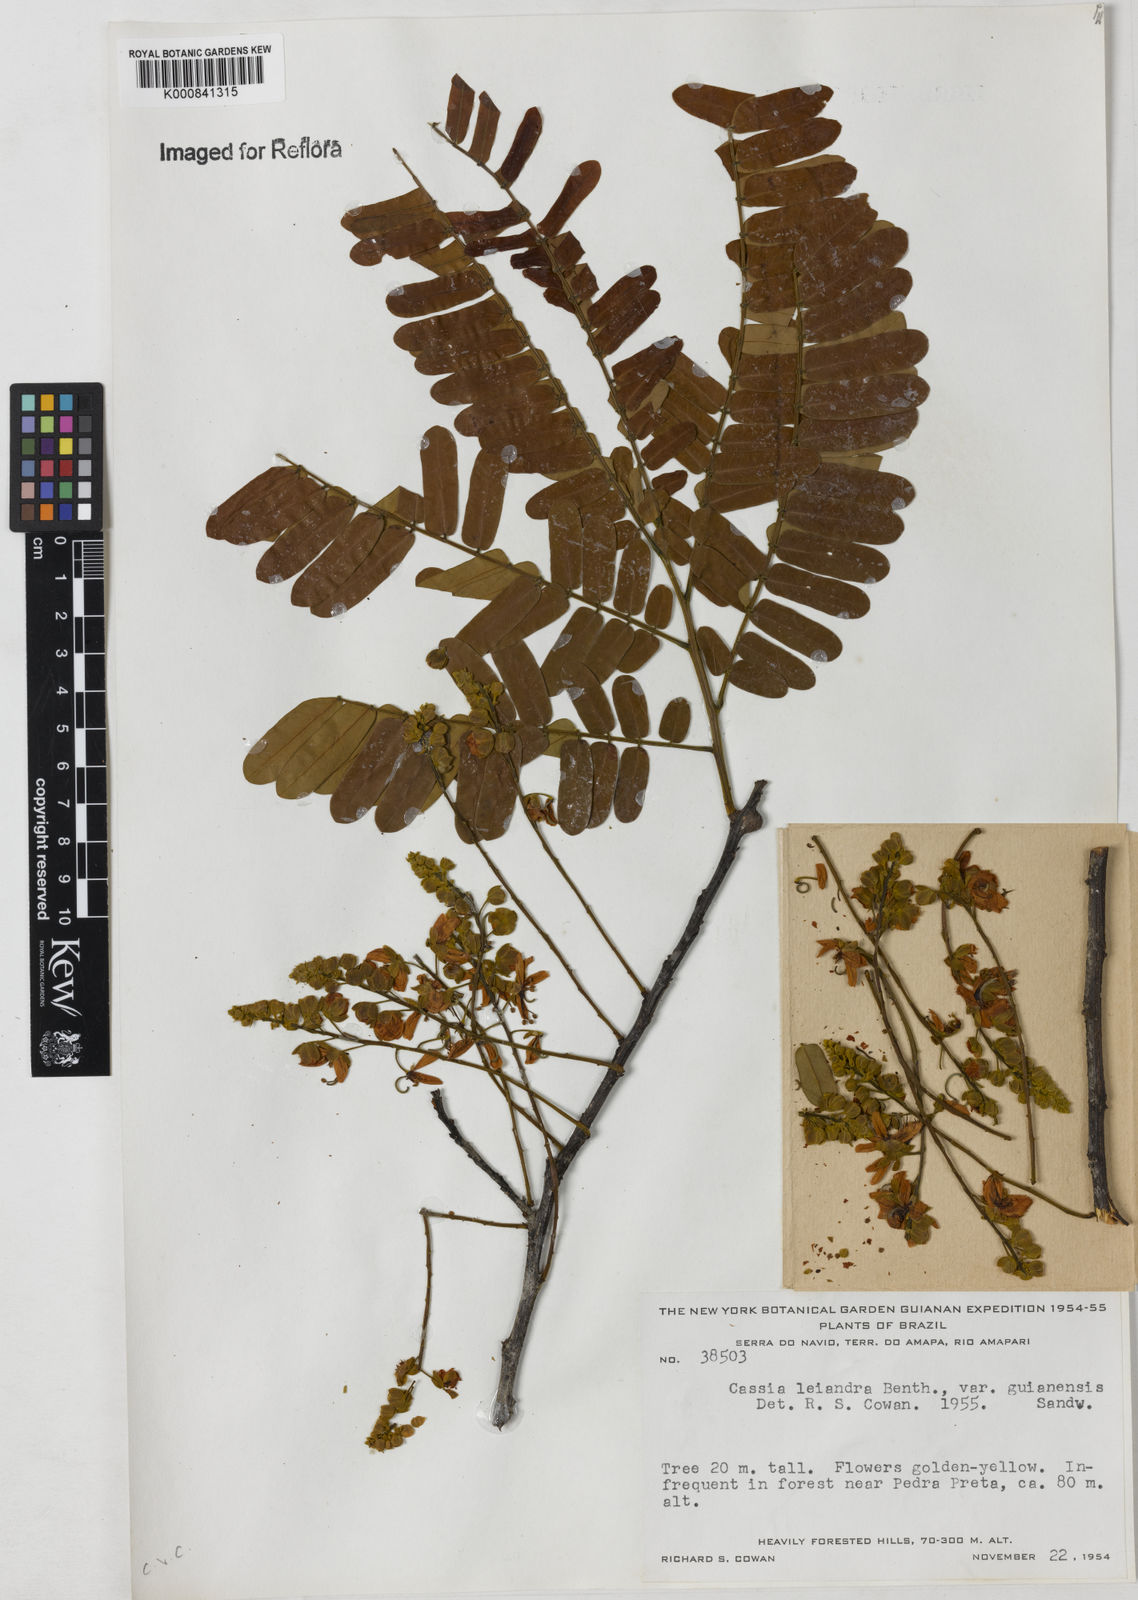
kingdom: Plantae
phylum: Tracheophyta
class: Magnoliopsida
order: Fabales
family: Fabaceae
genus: Cassia
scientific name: Cassia cowanii
